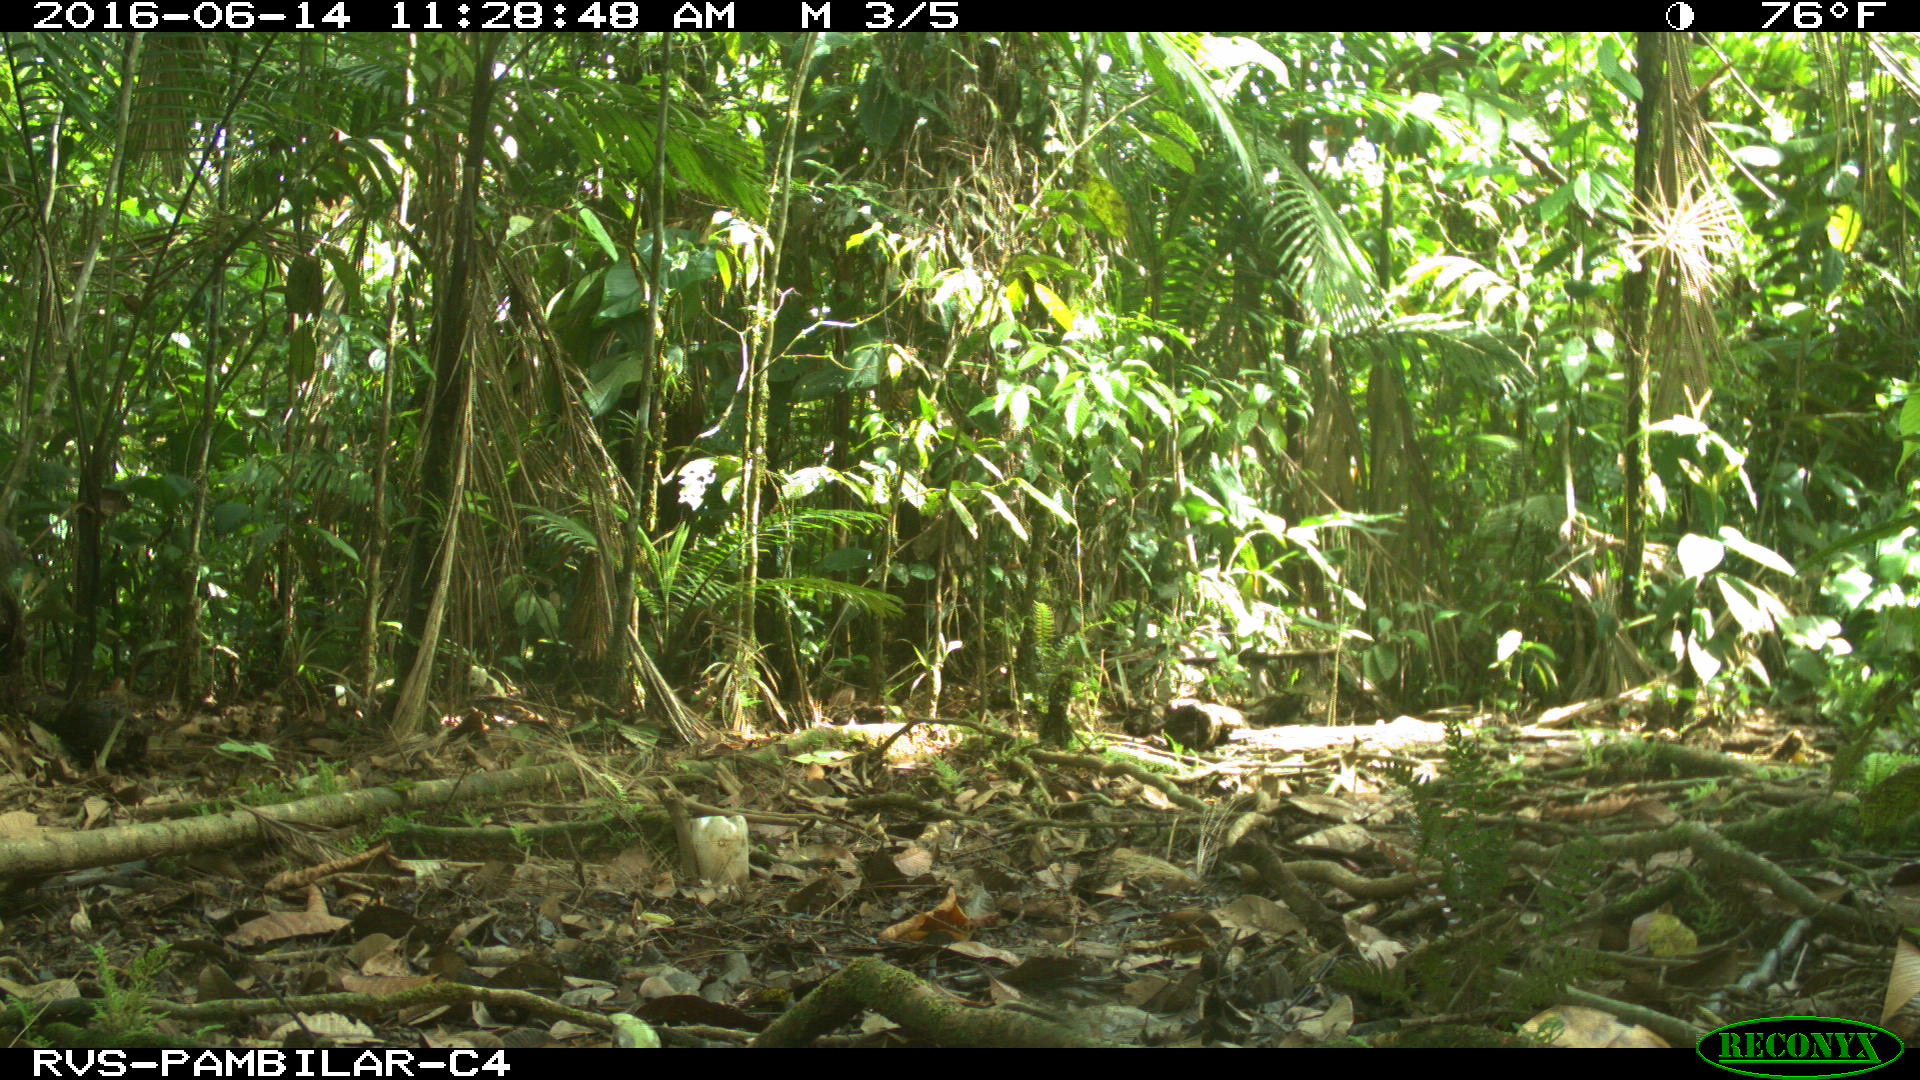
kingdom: Animalia
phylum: Chordata
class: Mammalia
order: Artiodactyla
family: Tayassuidae
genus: Tayassu
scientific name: Tayassu pecari
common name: White-lipped peccary
